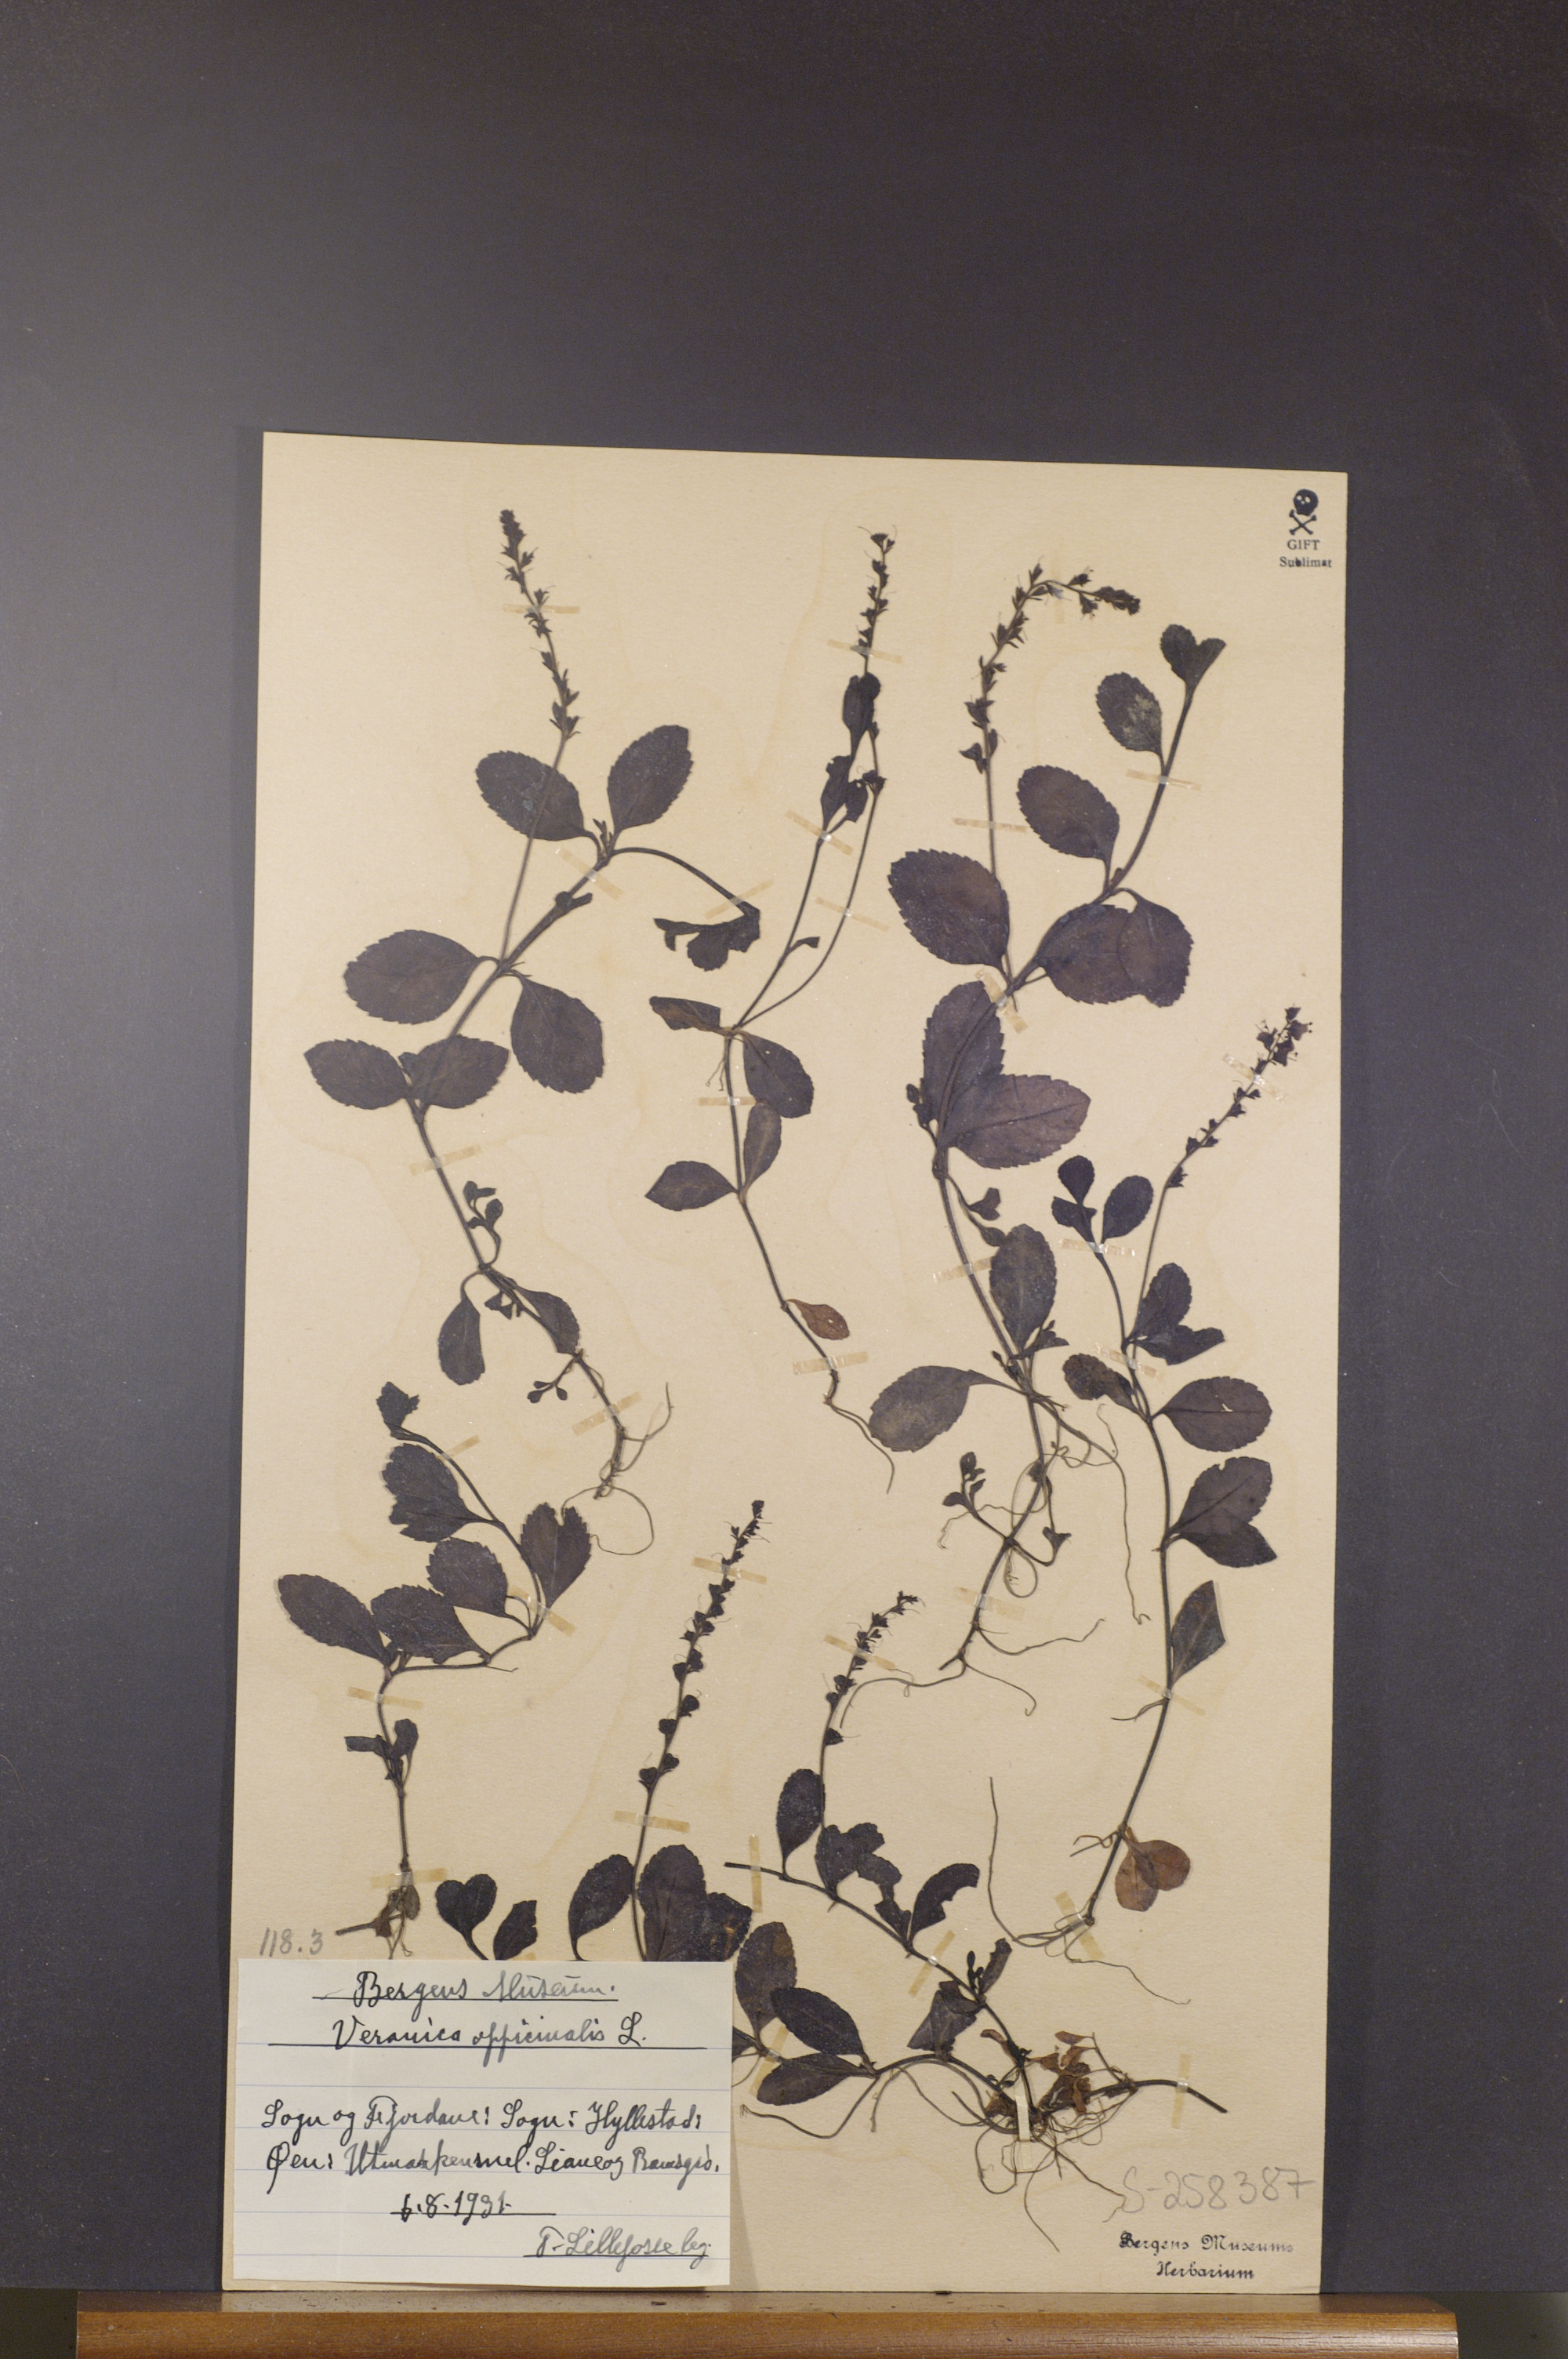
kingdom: Plantae
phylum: Tracheophyta
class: Magnoliopsida
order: Lamiales
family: Plantaginaceae
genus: Veronica
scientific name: Veronica officinalis
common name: Common speedwell
